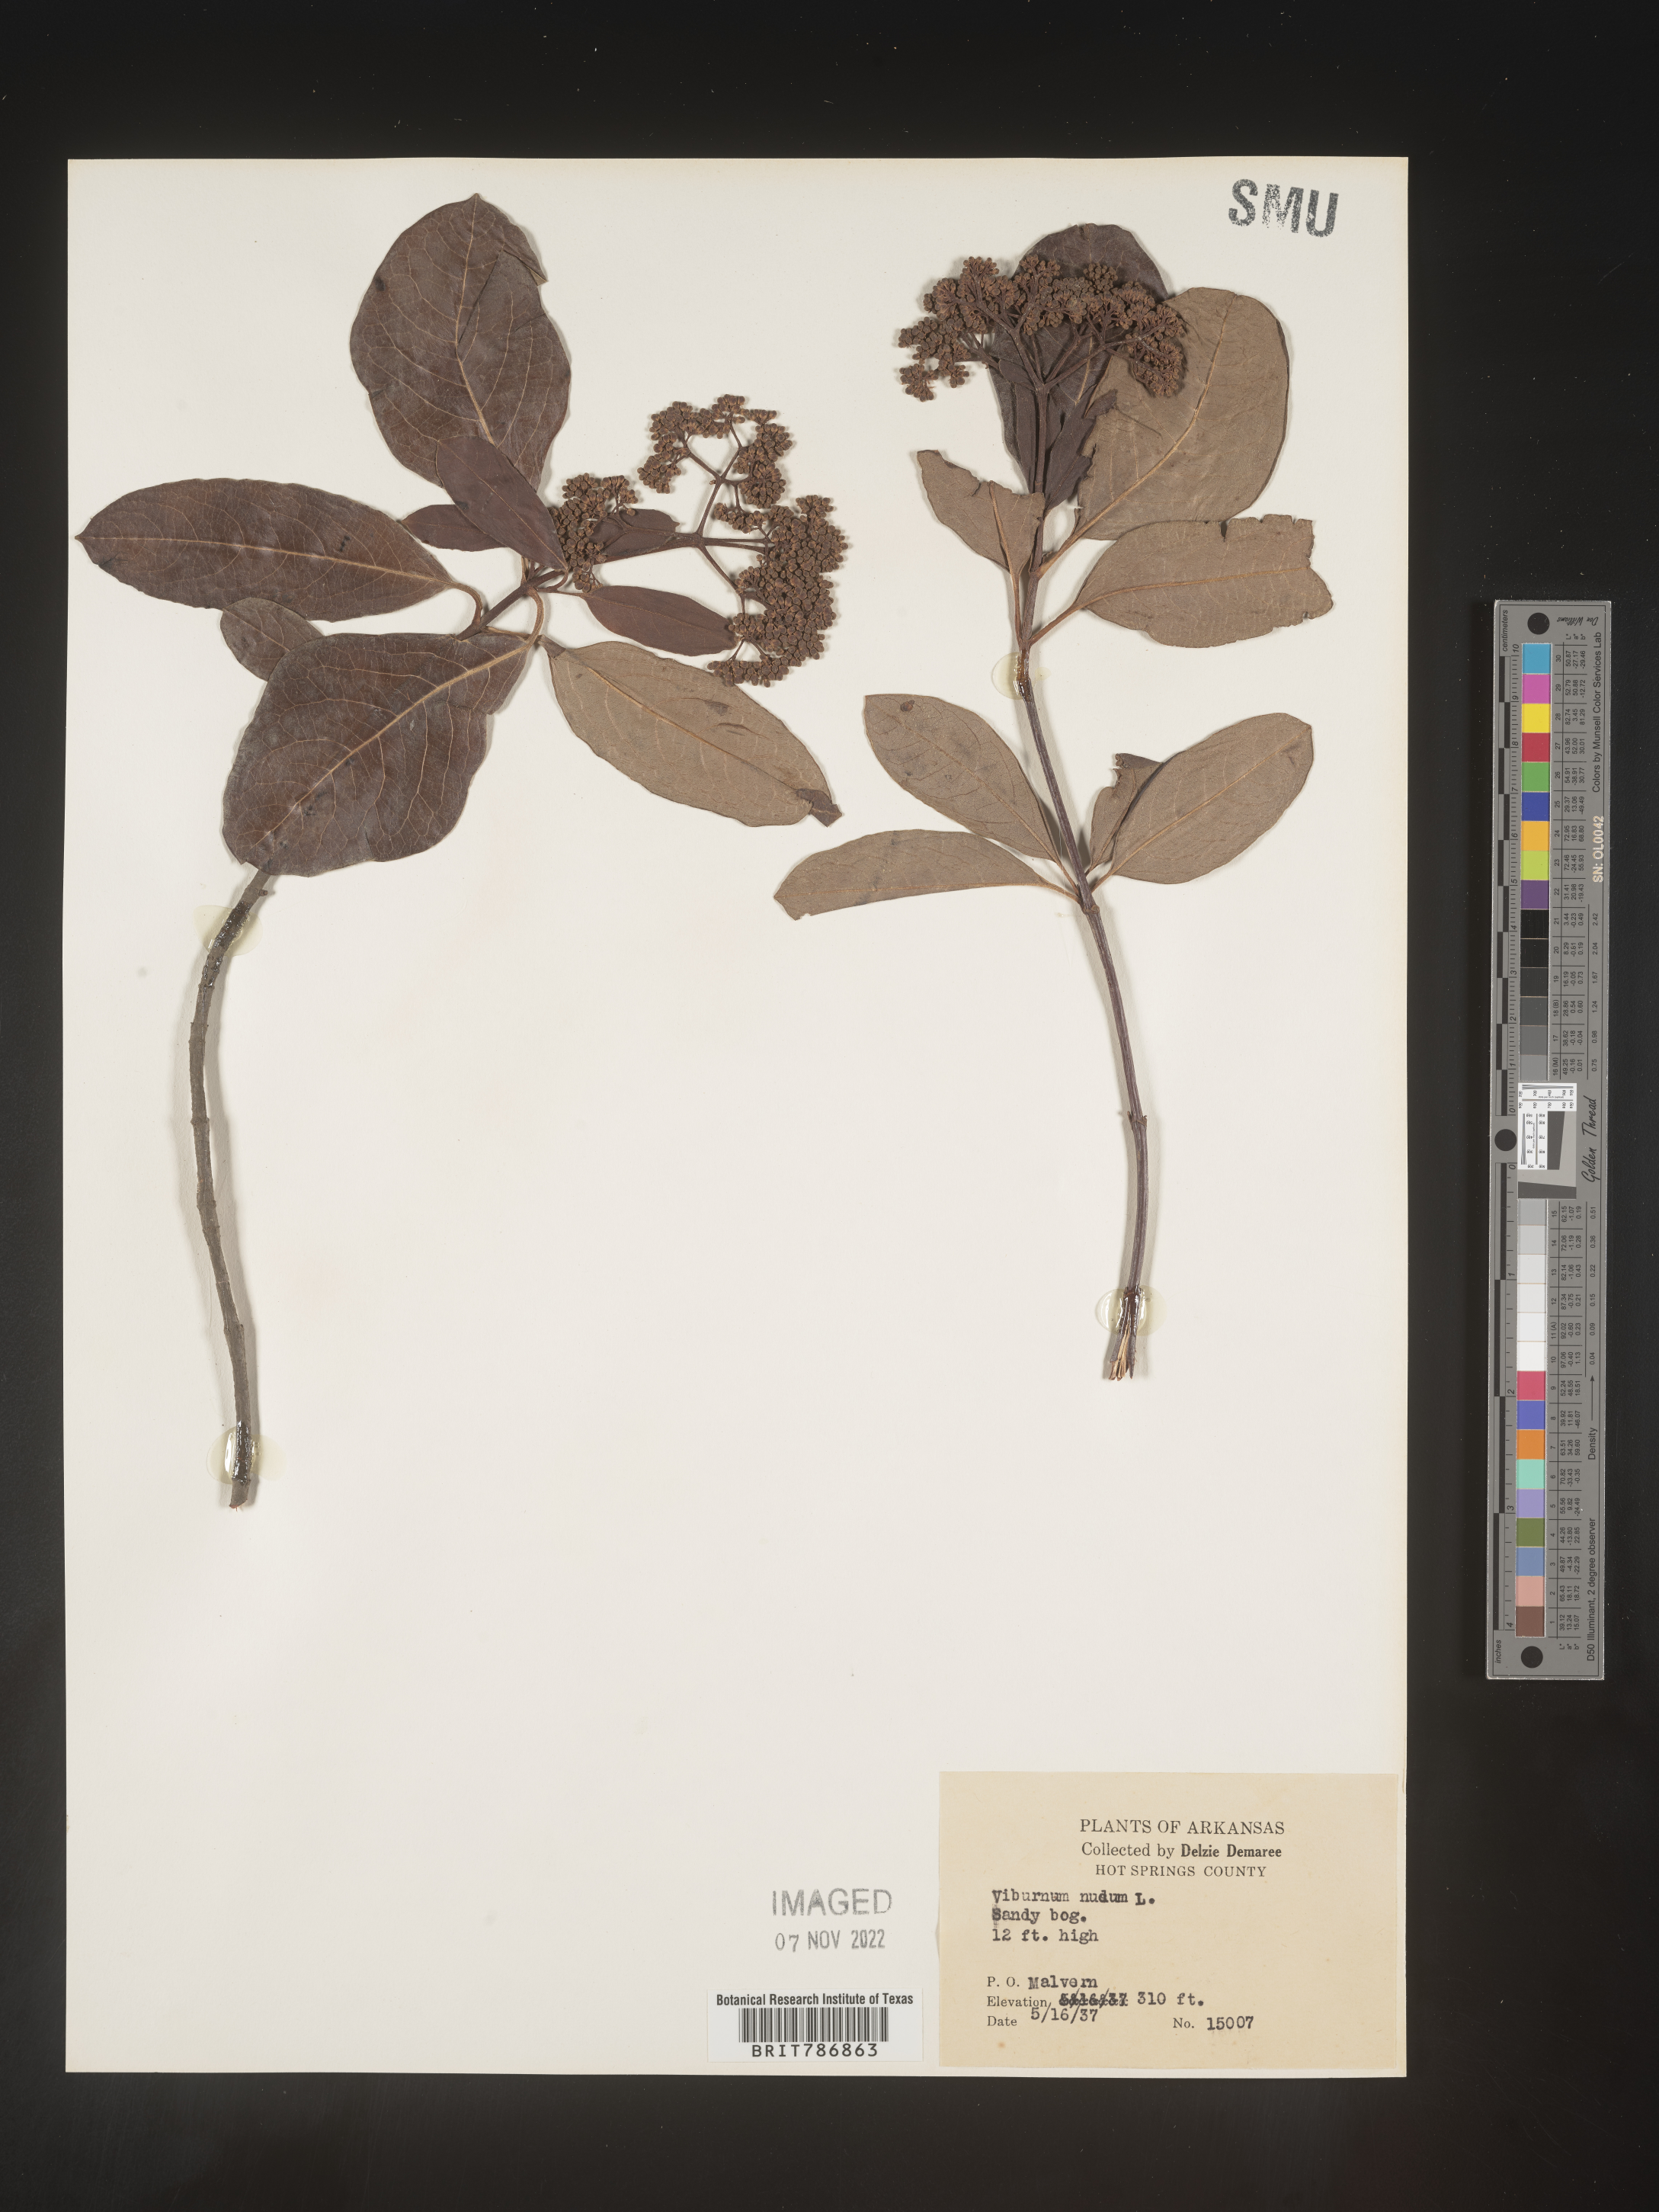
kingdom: Plantae
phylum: Tracheophyta
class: Magnoliopsida
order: Dipsacales
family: Viburnaceae
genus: Viburnum
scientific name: Viburnum nudum
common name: Possum haw
